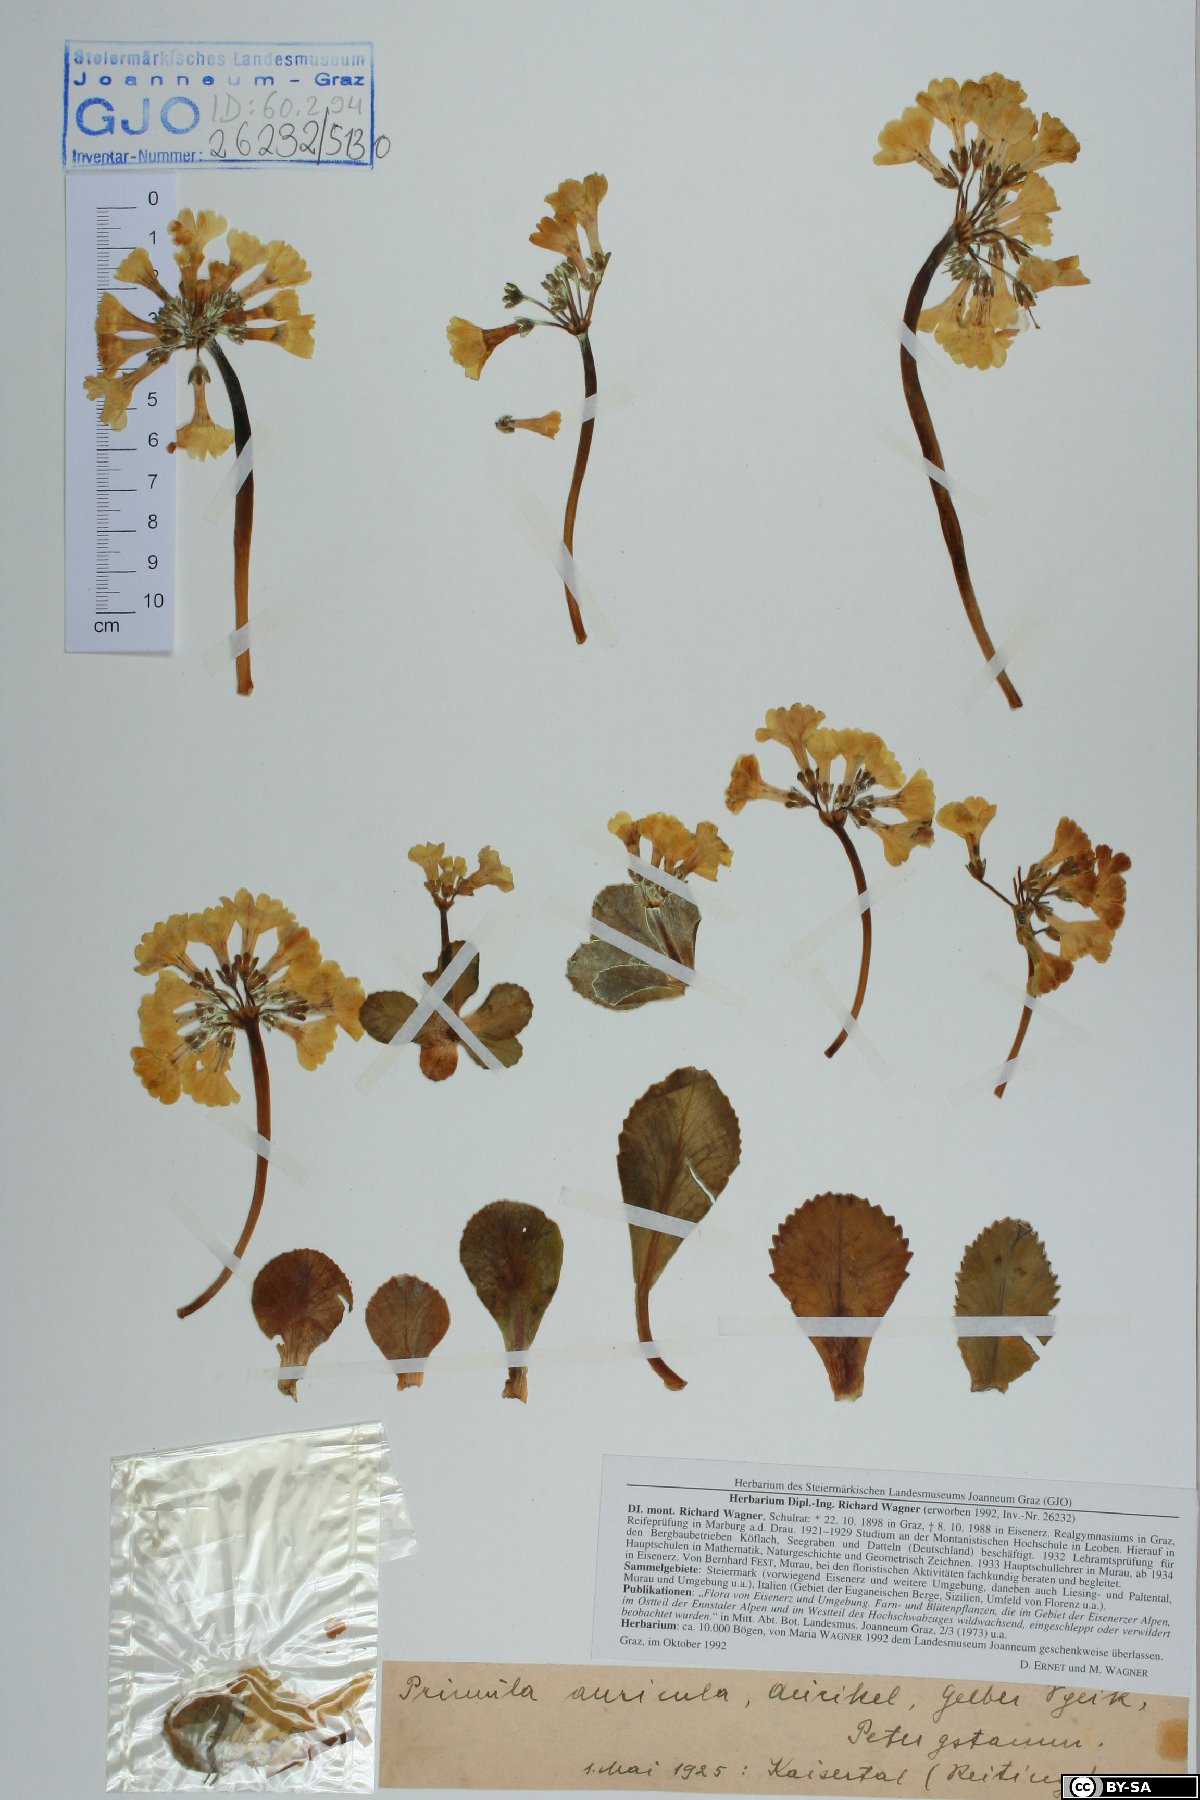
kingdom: Plantae
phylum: Tracheophyta
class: Magnoliopsida
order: Ericales
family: Primulaceae
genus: Primula
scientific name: Primula auricula
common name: Auricula
